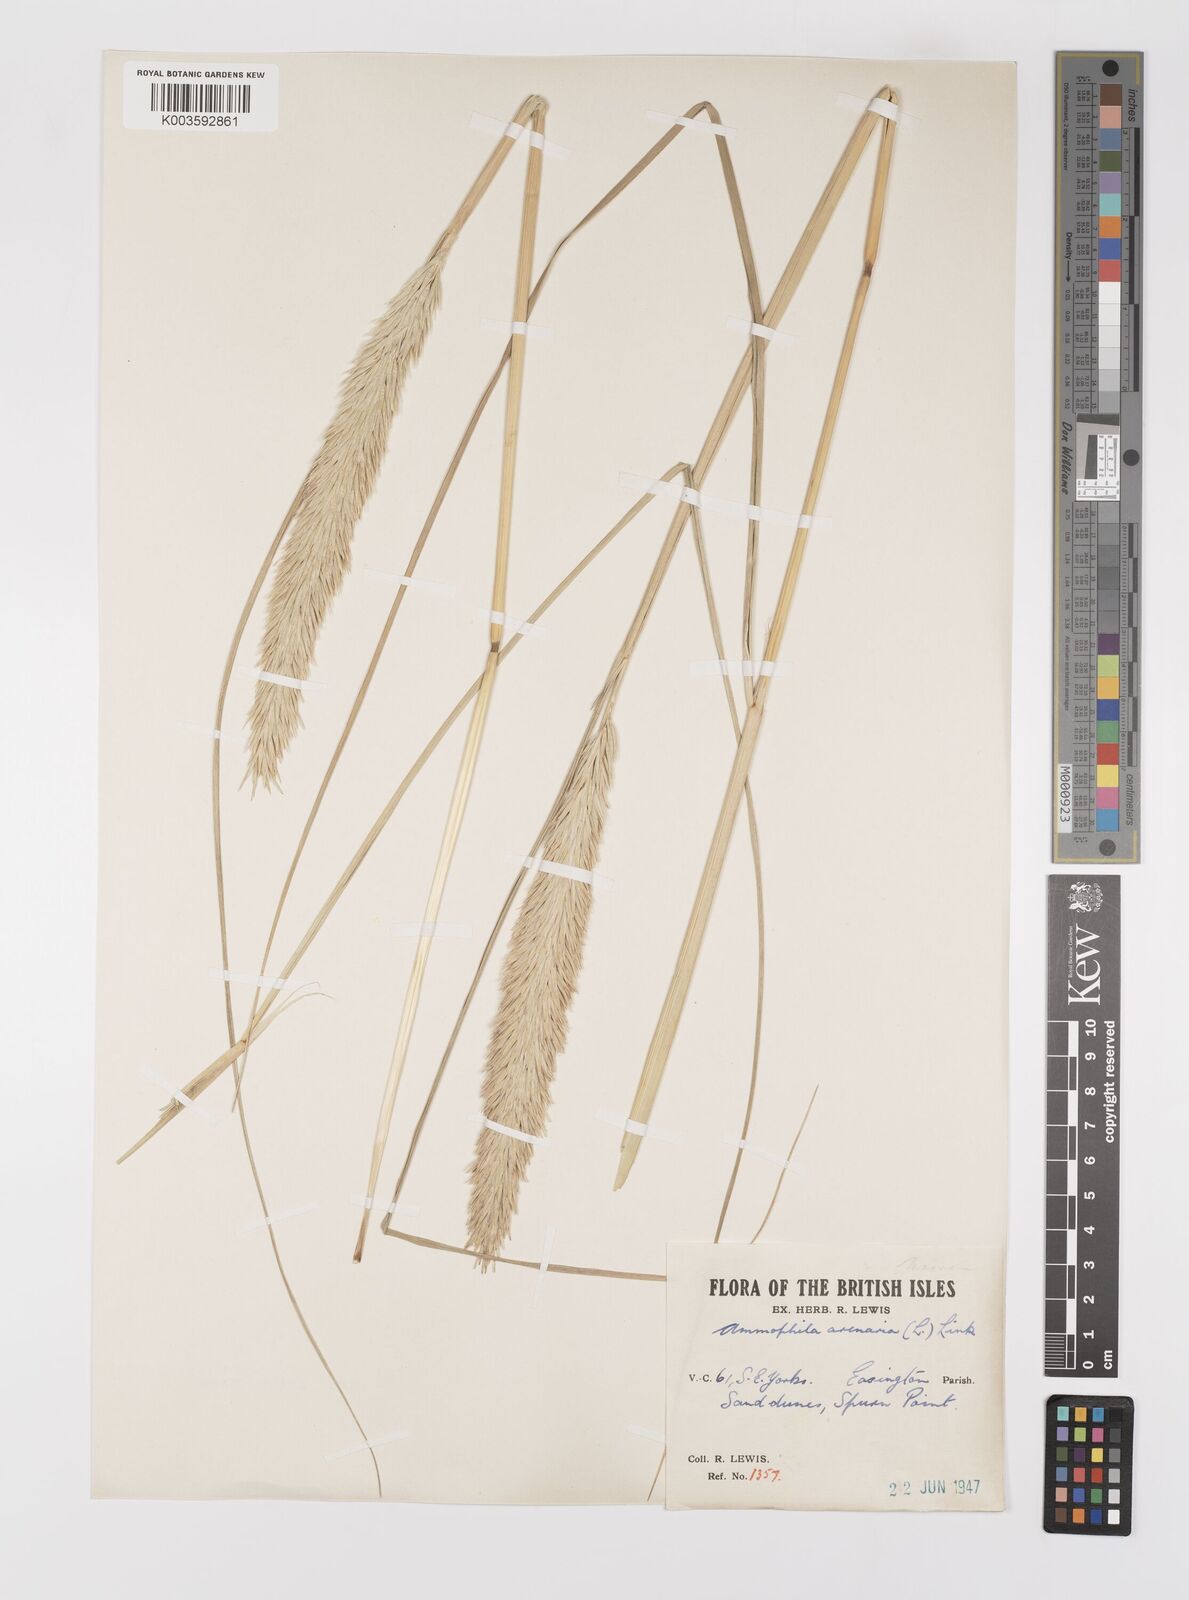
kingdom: Plantae
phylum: Tracheophyta
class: Liliopsida
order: Poales
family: Poaceae
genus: Calamagrostis
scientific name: Calamagrostis arenaria
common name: European beachgrass
